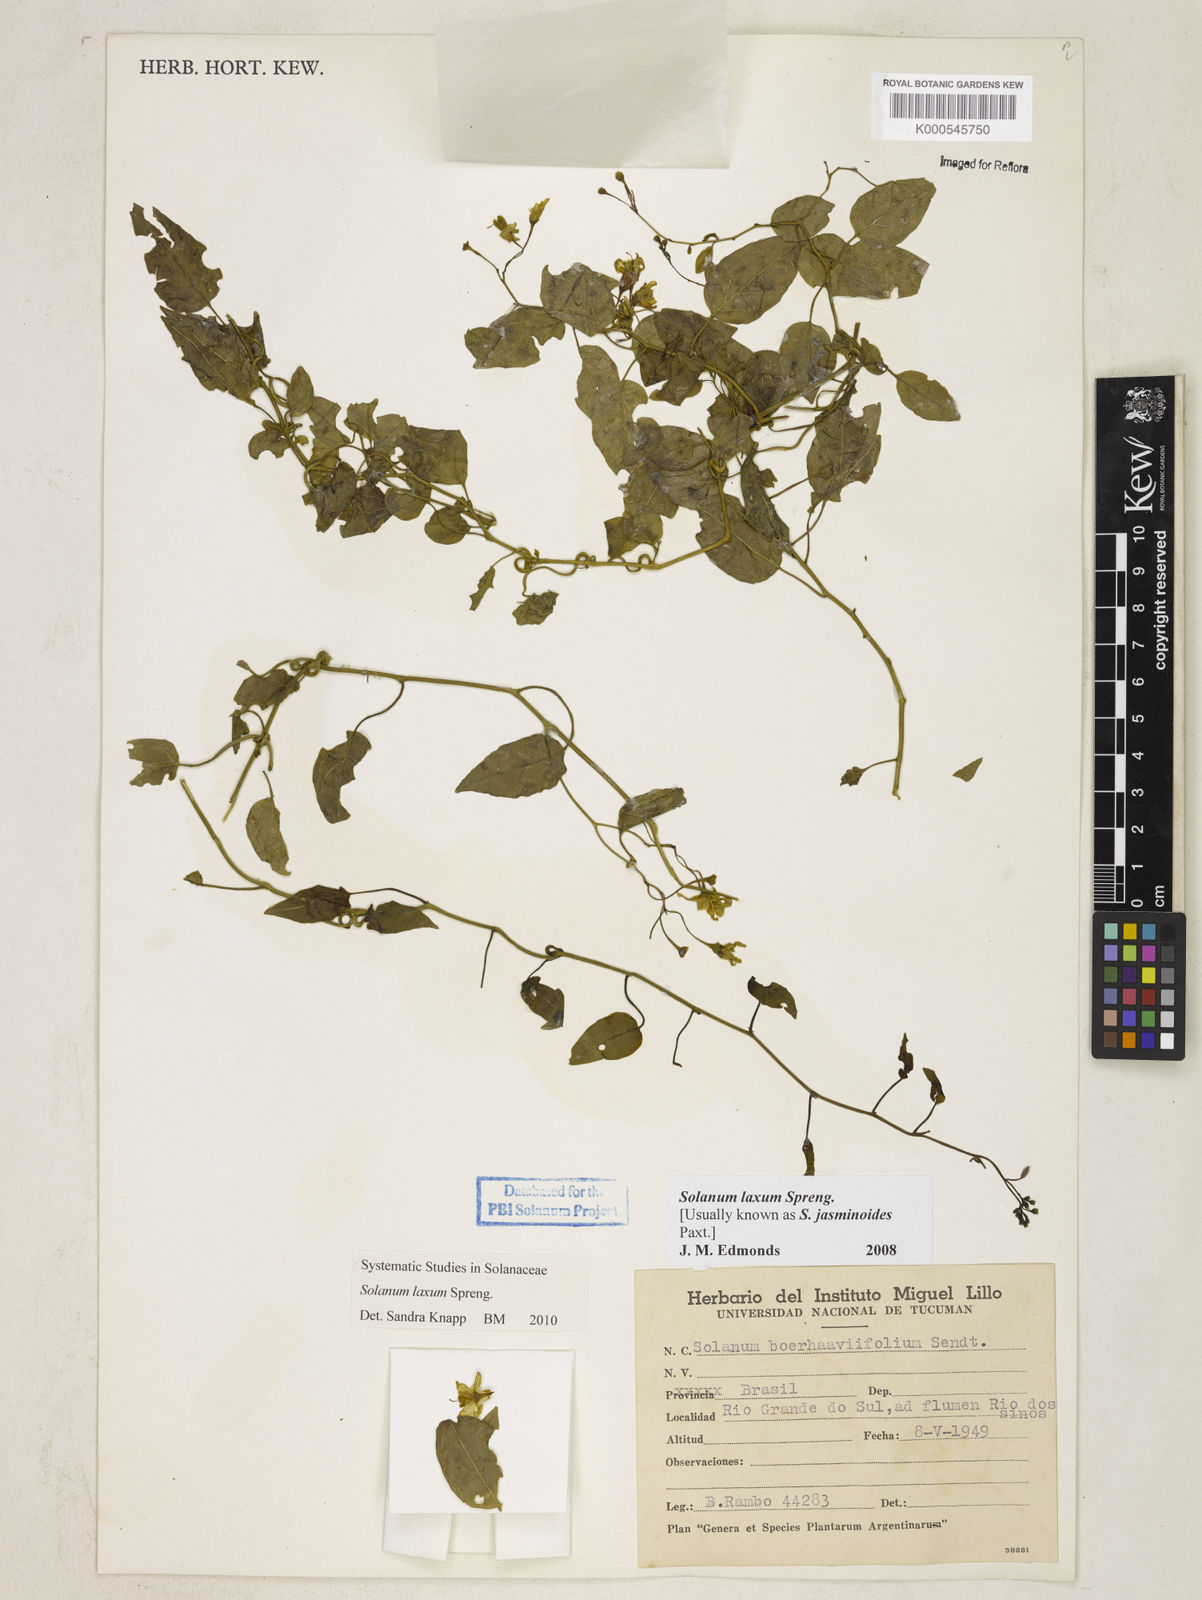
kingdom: Plantae
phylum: Tracheophyta
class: Magnoliopsida
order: Solanales
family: Solanaceae
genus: Solanum
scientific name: Solanum laxum
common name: Nightshade
